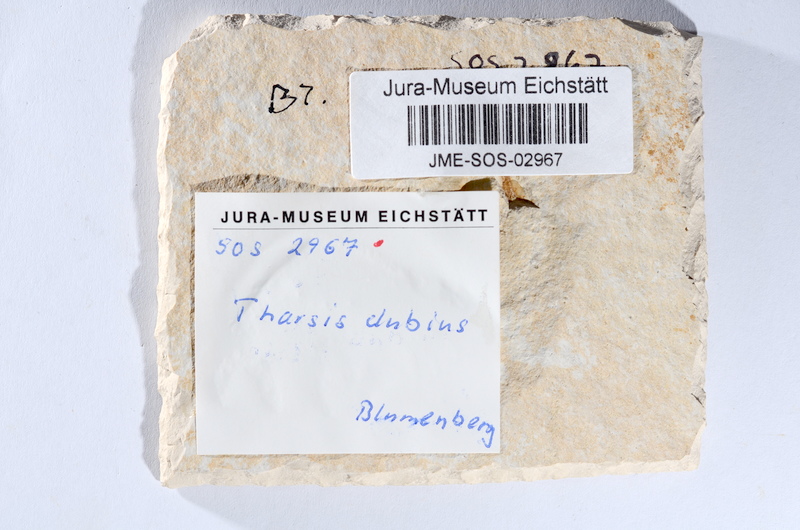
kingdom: Animalia
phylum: Chordata
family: Ascalaboidae
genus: Tharsis
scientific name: Tharsis dubius
